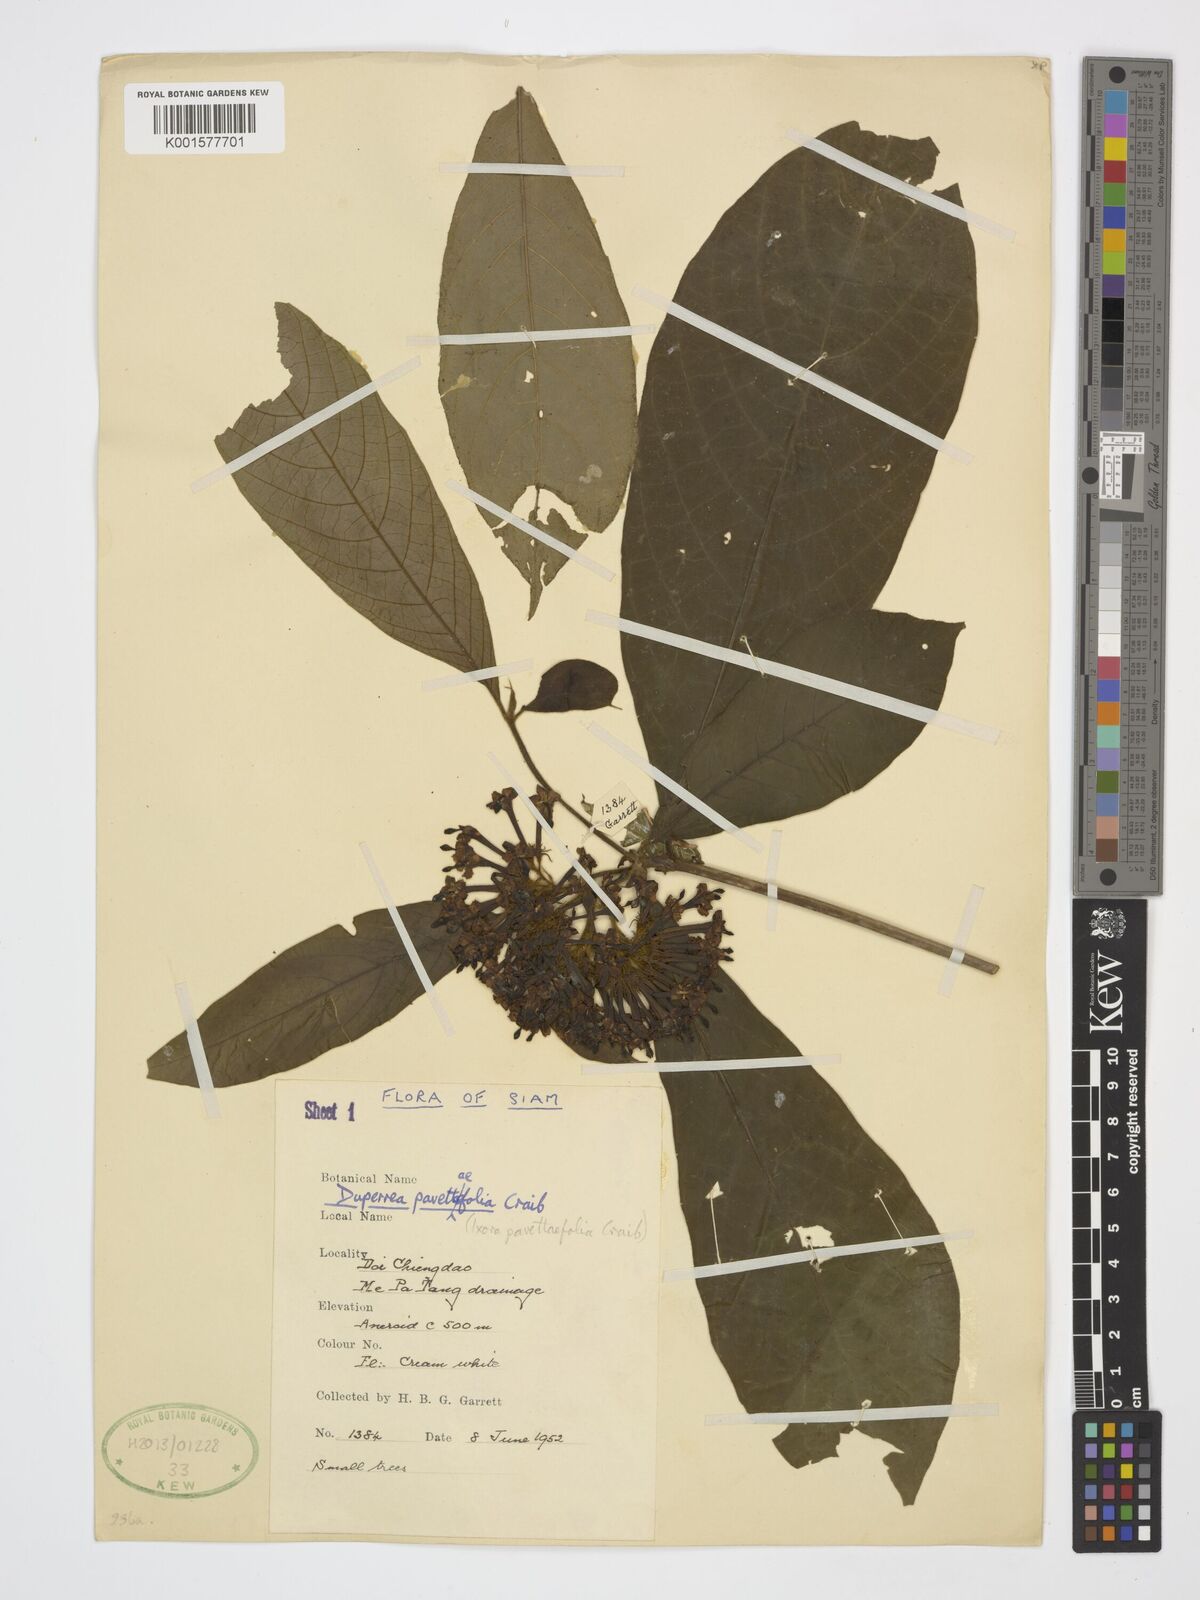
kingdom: Plantae
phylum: Tracheophyta
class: Magnoliopsida
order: Gentianales
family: Rubiaceae
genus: Duperrea
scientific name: Duperrea pavettifolia
